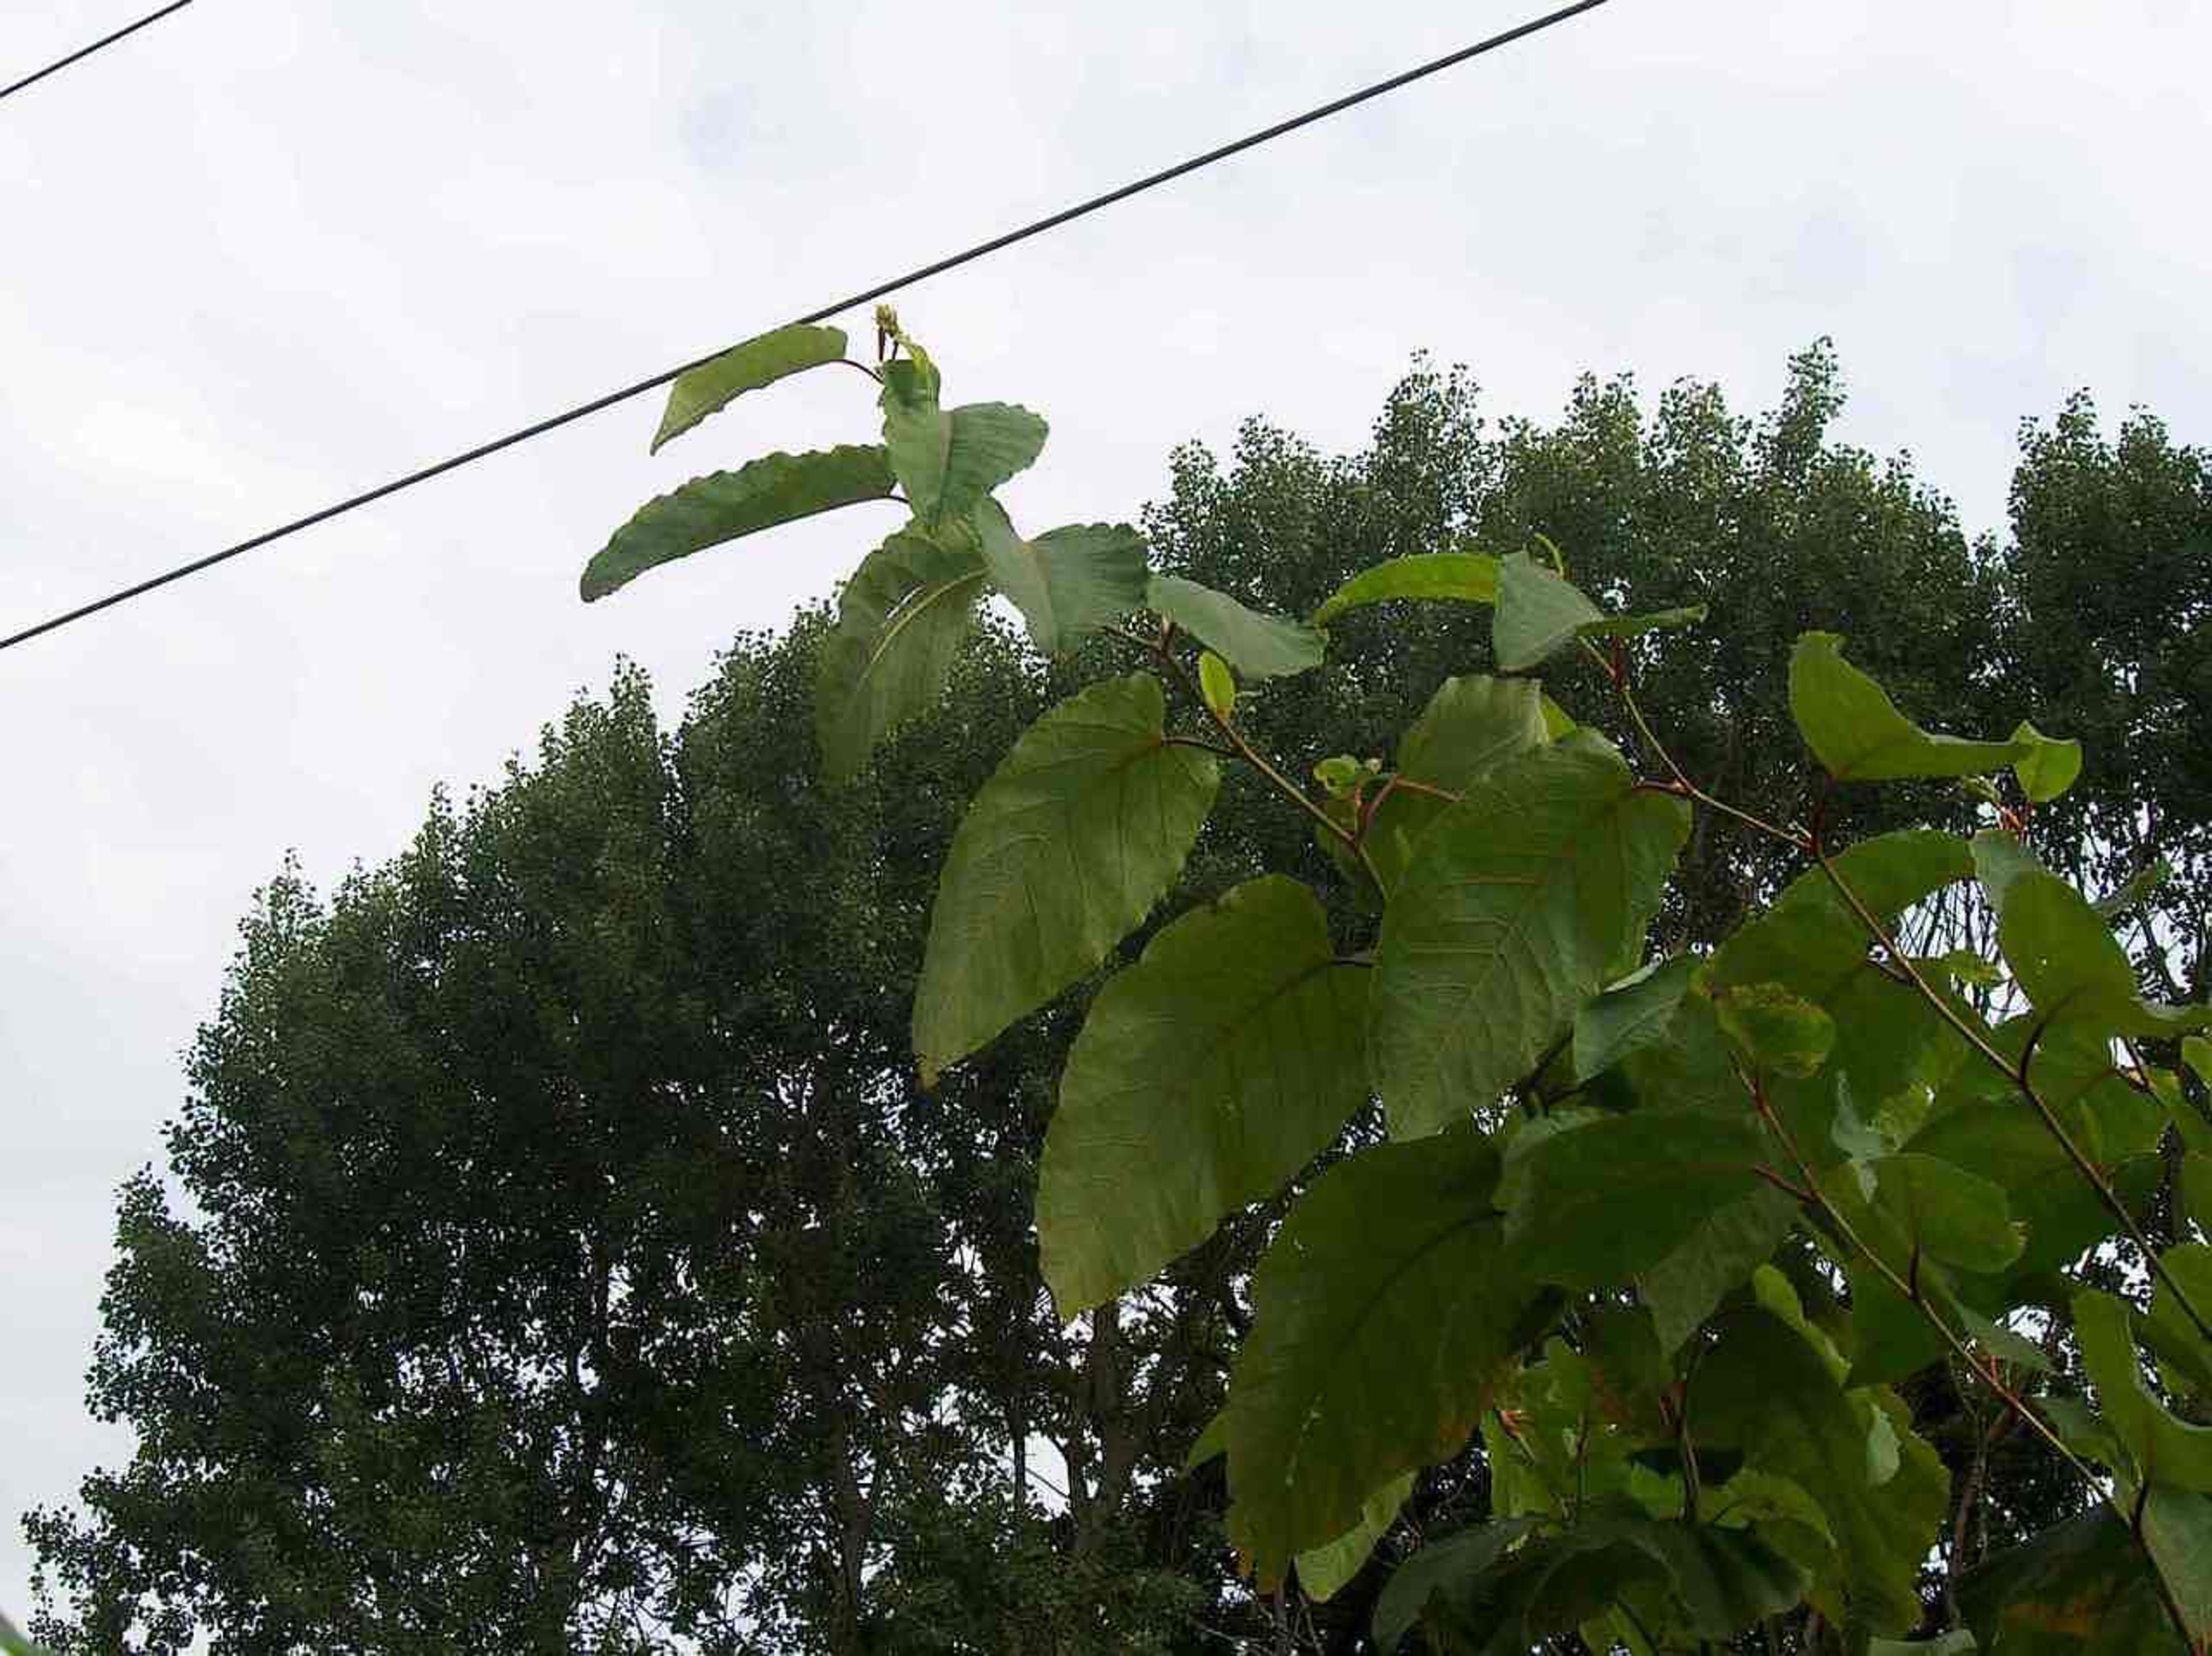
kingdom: Plantae
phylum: Tracheophyta
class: Magnoliopsida
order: Caryophyllales
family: Polygonaceae
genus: Reynoutria
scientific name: Reynoutria sachalinensis
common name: Kæmpe-pileurt
